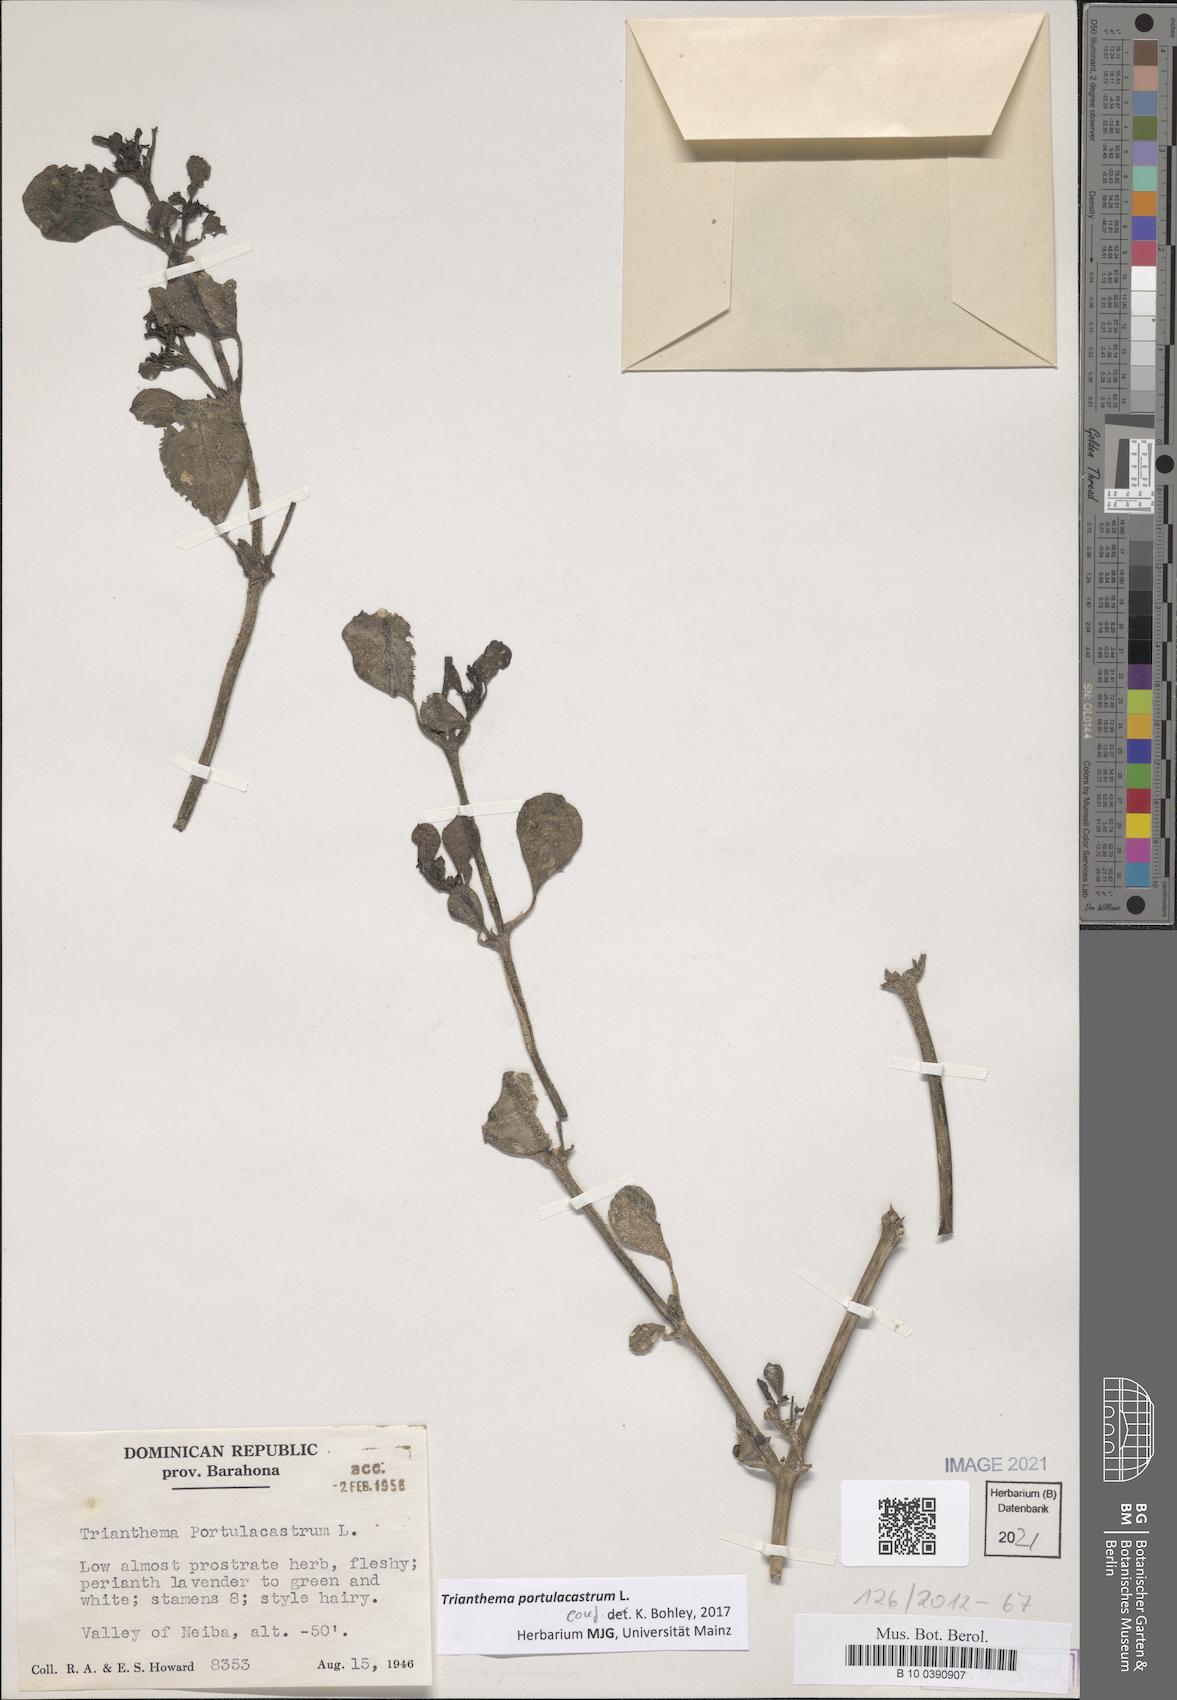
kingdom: Plantae
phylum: Tracheophyta
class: Magnoliopsida
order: Caryophyllales
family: Aizoaceae
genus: Trianthema
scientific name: Trianthema portulacastrum
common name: Desert horsepurslane
